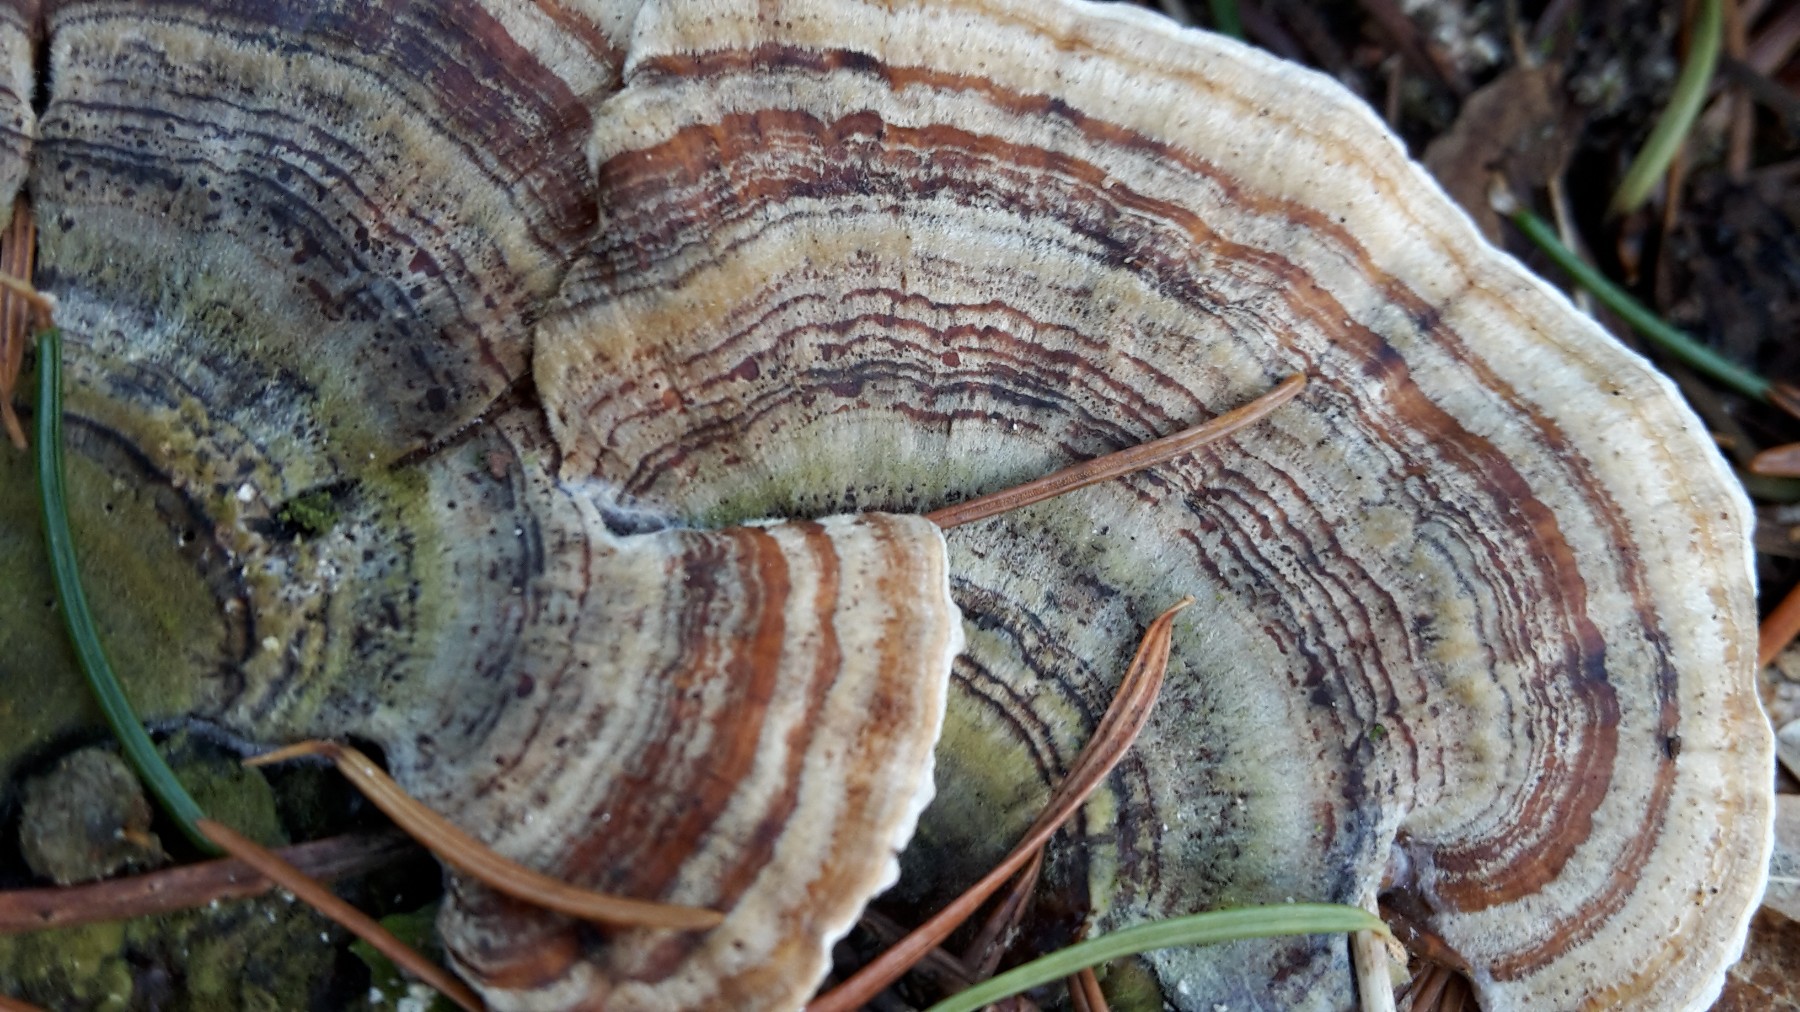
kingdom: Fungi
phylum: Basidiomycota
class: Agaricomycetes
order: Polyporales
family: Polyporaceae
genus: Trametes
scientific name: Trametes versicolor
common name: broget læderporesvamp
